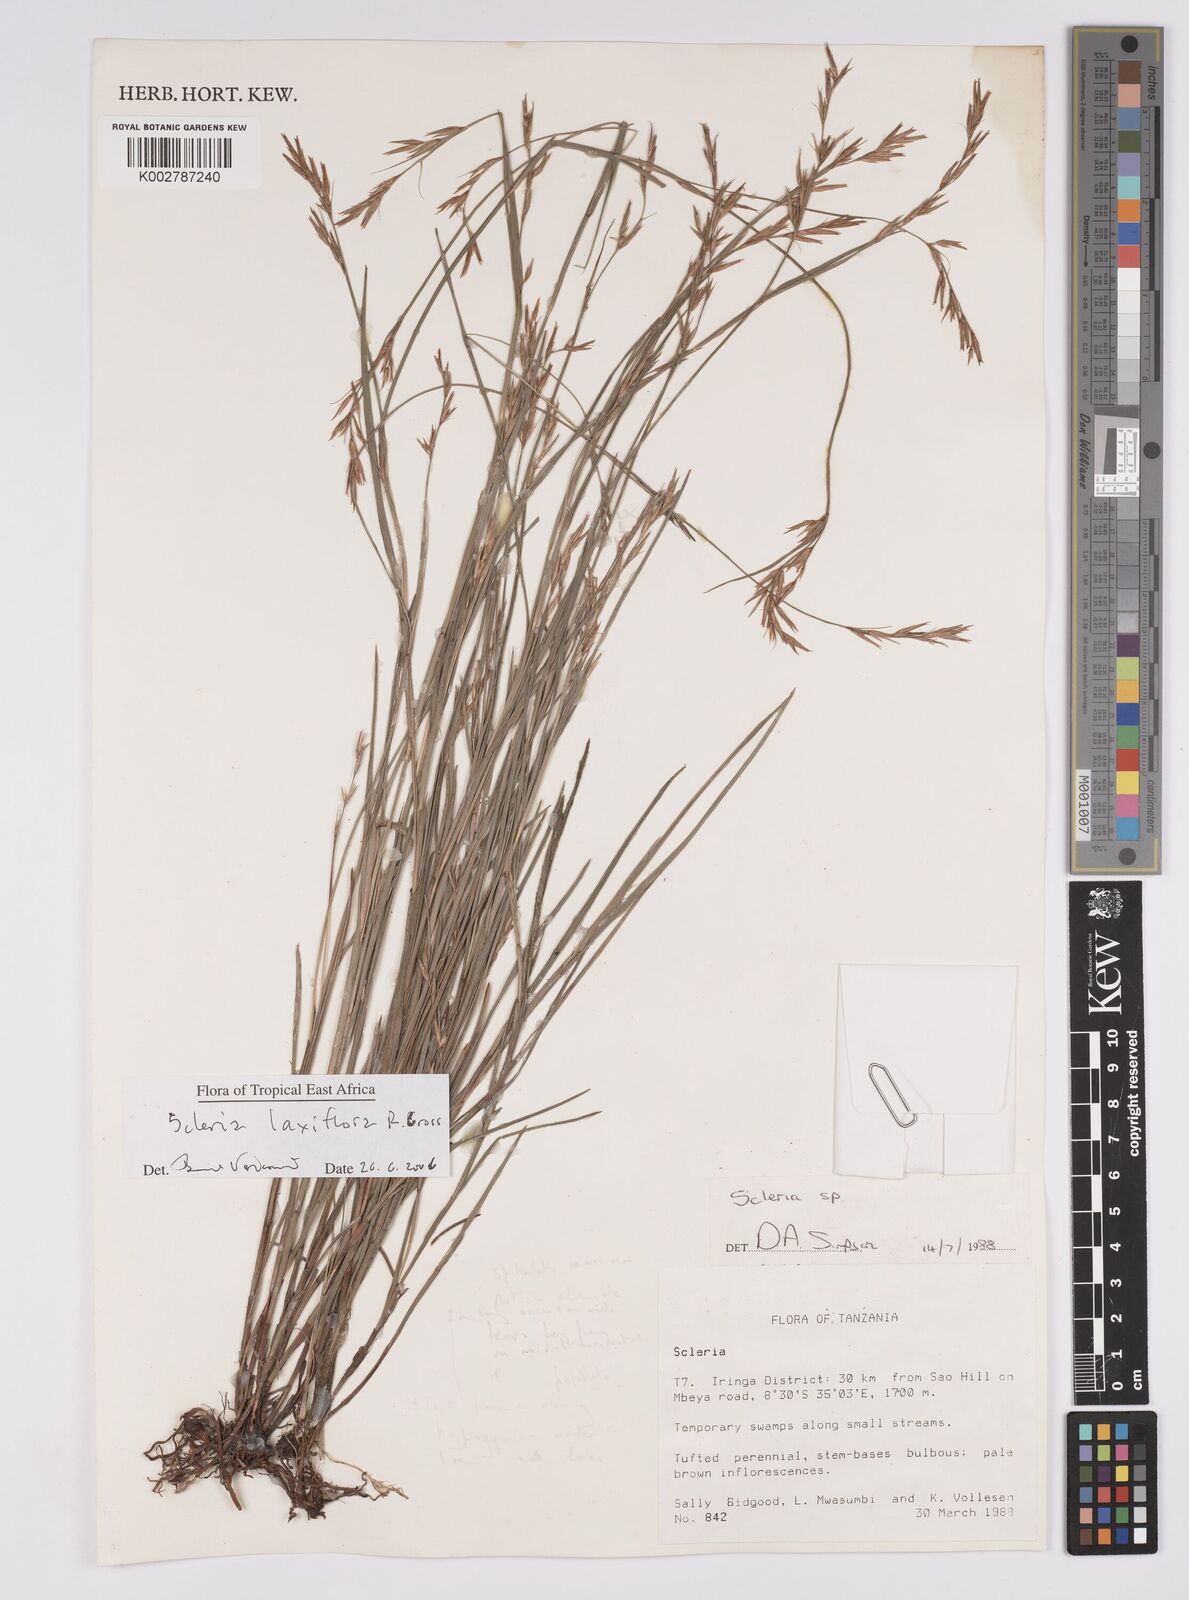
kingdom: Plantae
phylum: Tracheophyta
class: Liliopsida
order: Poales
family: Cyperaceae
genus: Scleria
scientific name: Scleria laxiflora
